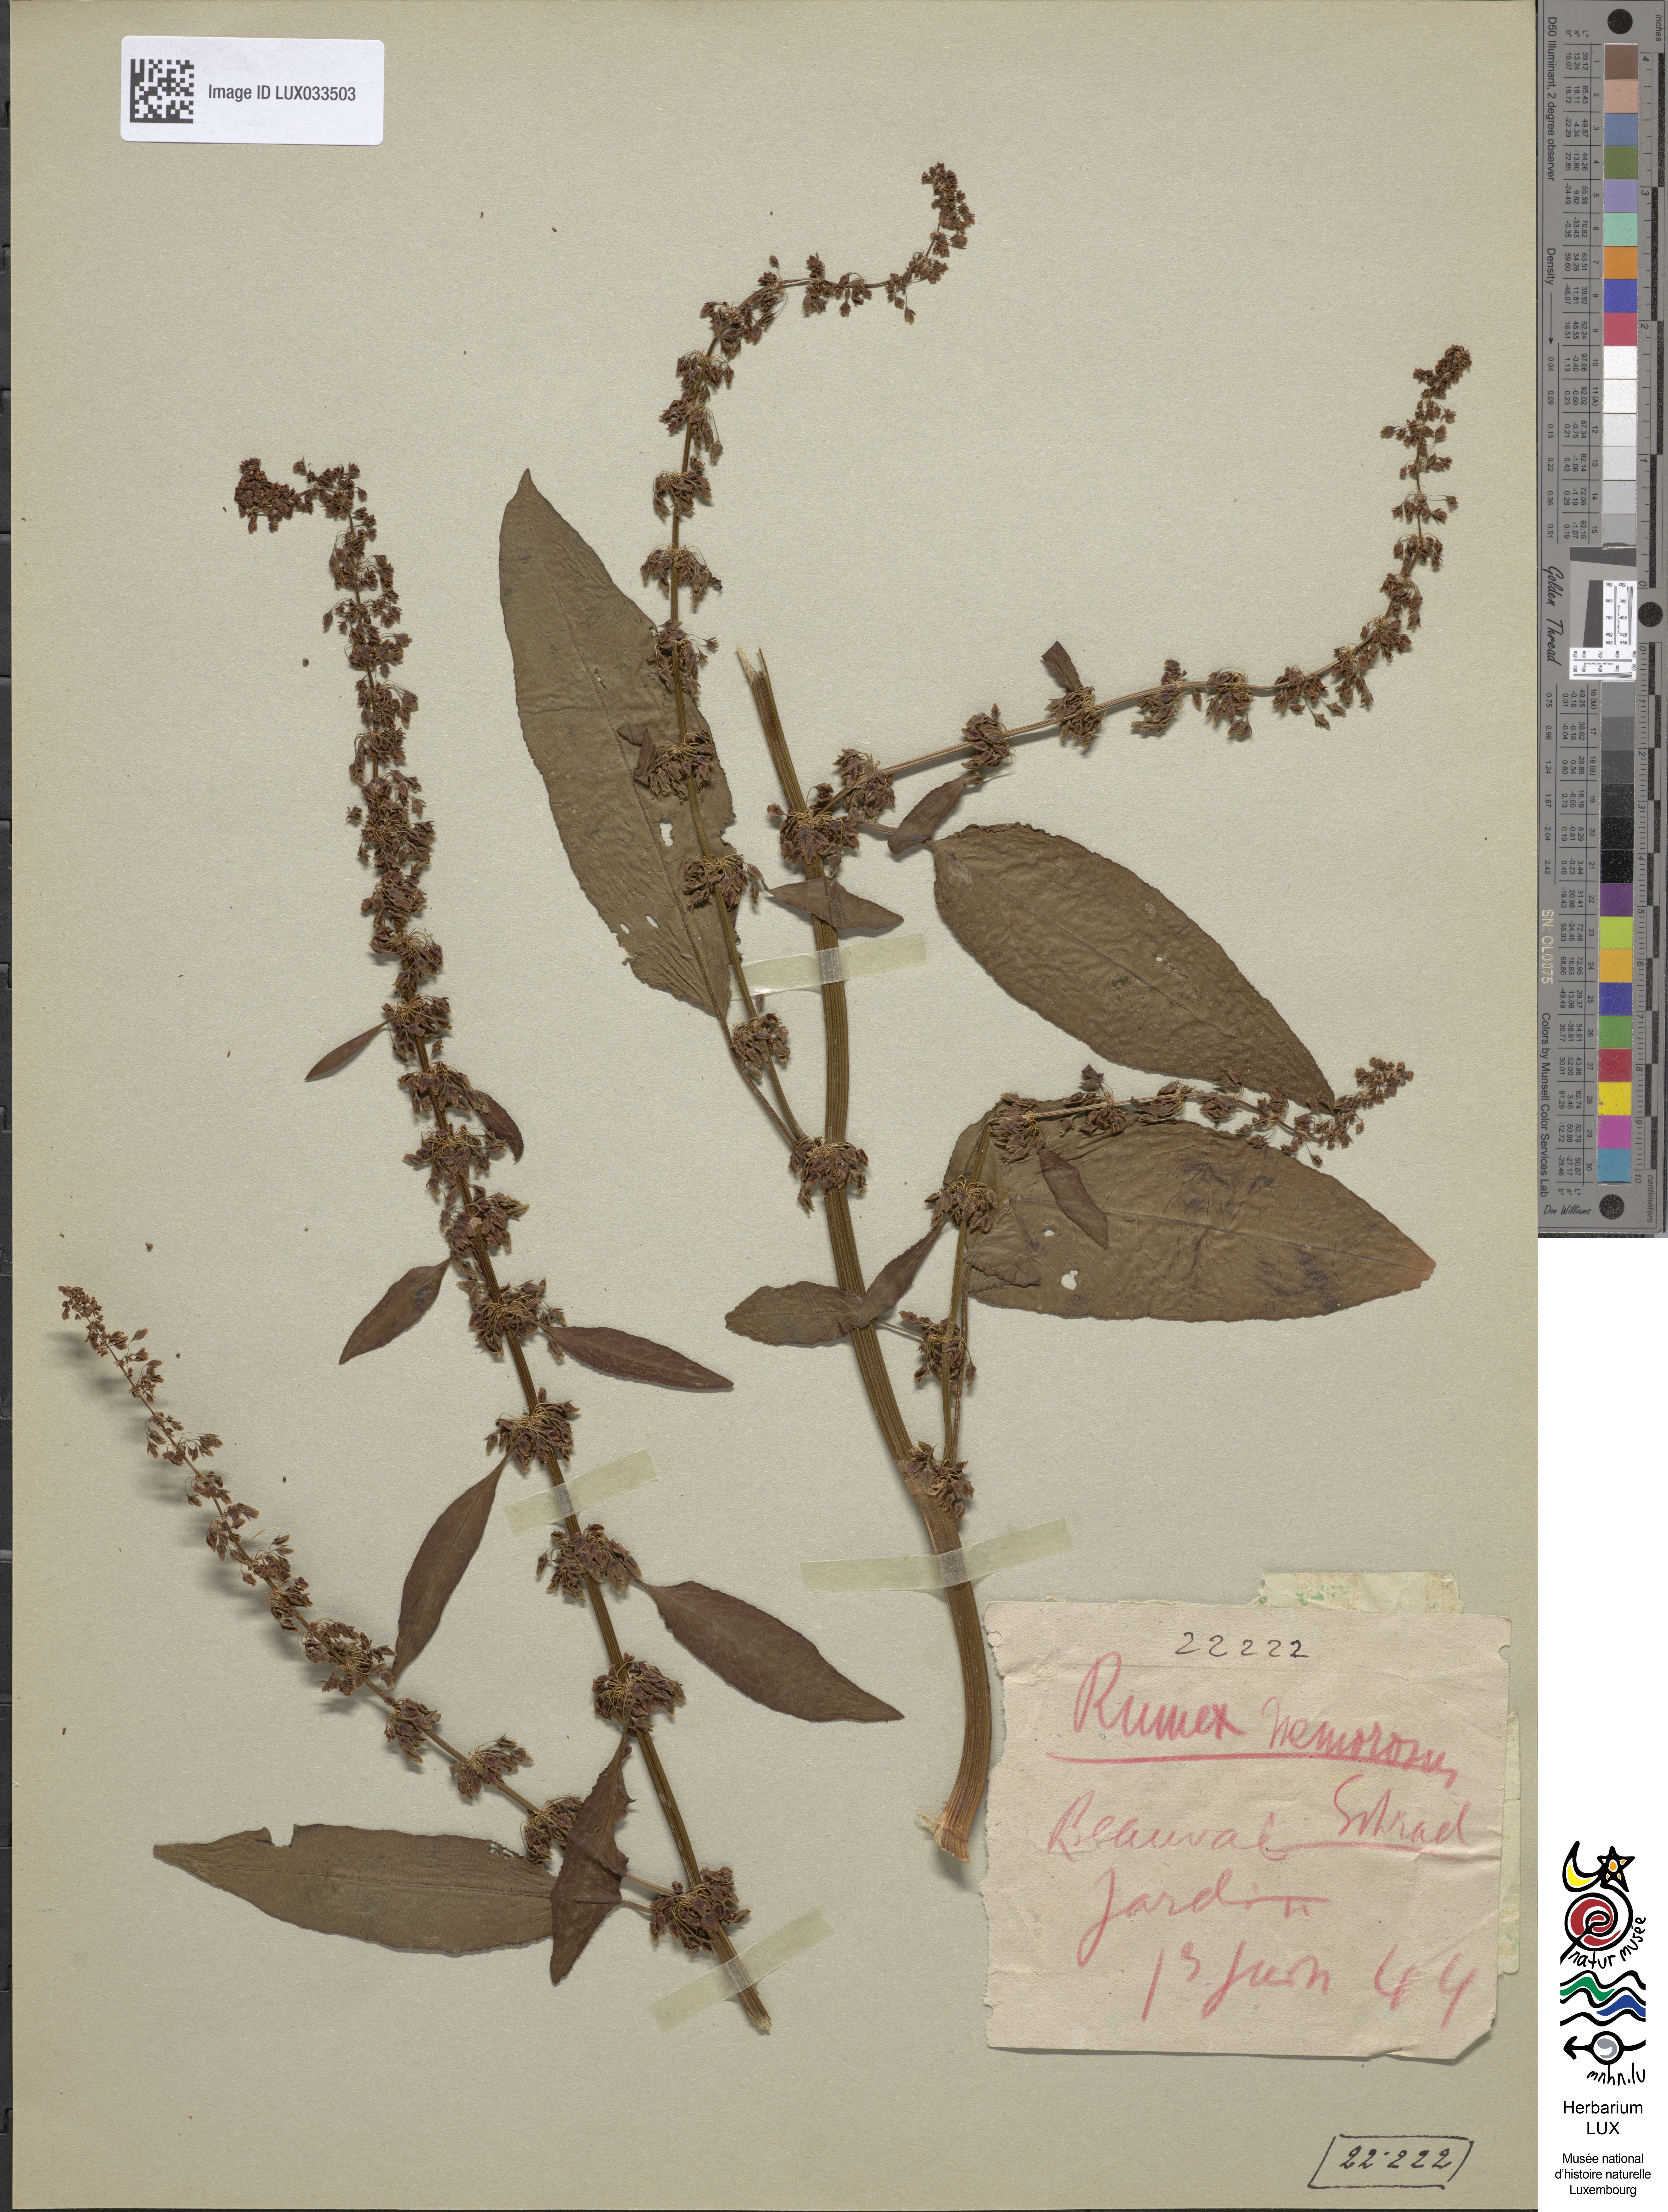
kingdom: Plantae
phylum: Tracheophyta
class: Magnoliopsida
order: Caryophyllales
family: Polygonaceae
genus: Rumex
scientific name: Rumex sanguineus
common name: Wood dock
